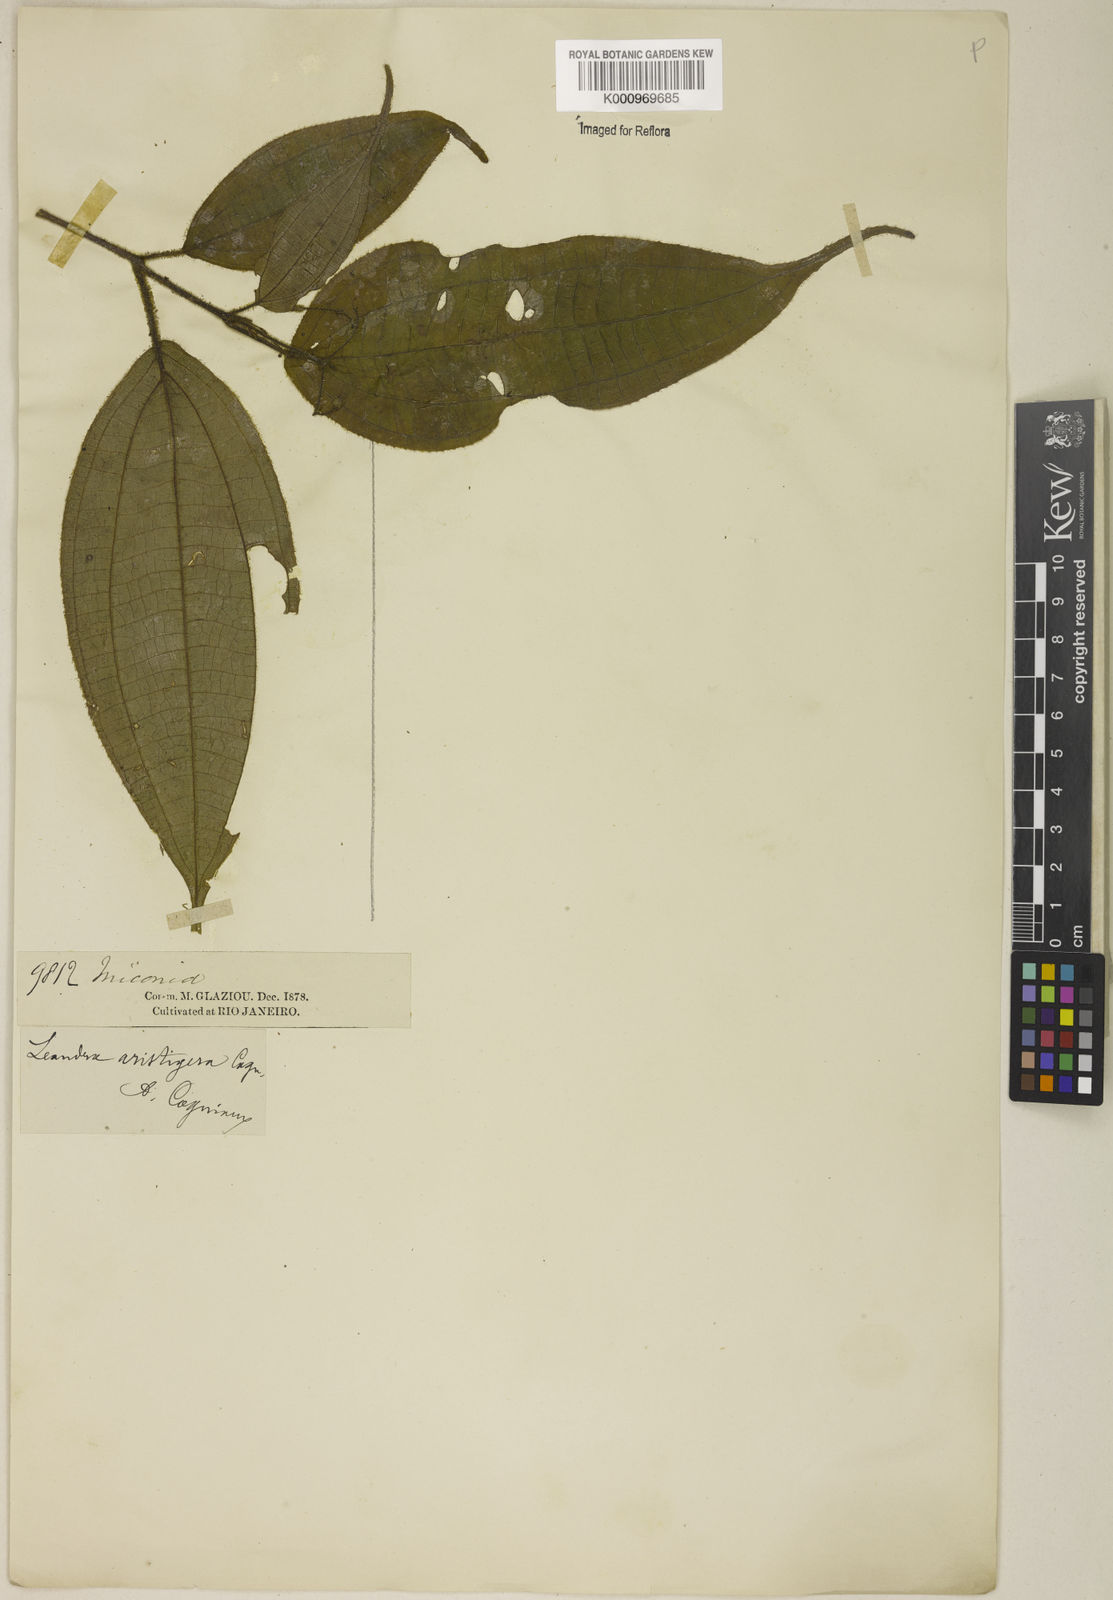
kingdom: Plantae
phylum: Tracheophyta
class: Magnoliopsida
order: Myrtales
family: Melastomataceae
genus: Miconia
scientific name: Miconia aristigera
